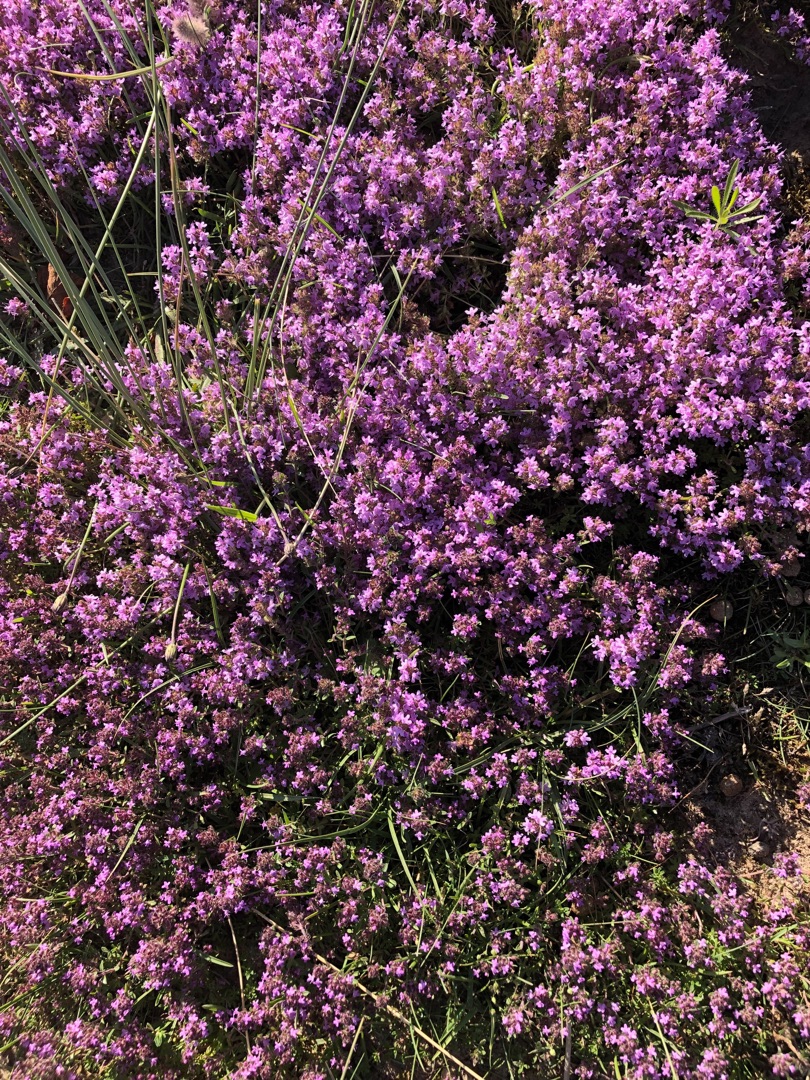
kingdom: Plantae
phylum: Tracheophyta
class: Magnoliopsida
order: Lamiales
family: Lamiaceae
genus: Thymus
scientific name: Thymus serpyllum
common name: Smalbladet timian
